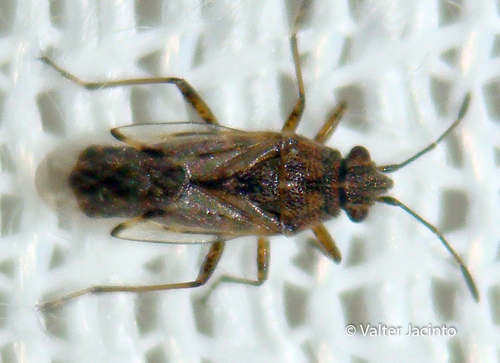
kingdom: Animalia
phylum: Arthropoda
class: Insecta
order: Hemiptera
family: Lygaeidae
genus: Nysius
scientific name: Nysius cymoides
